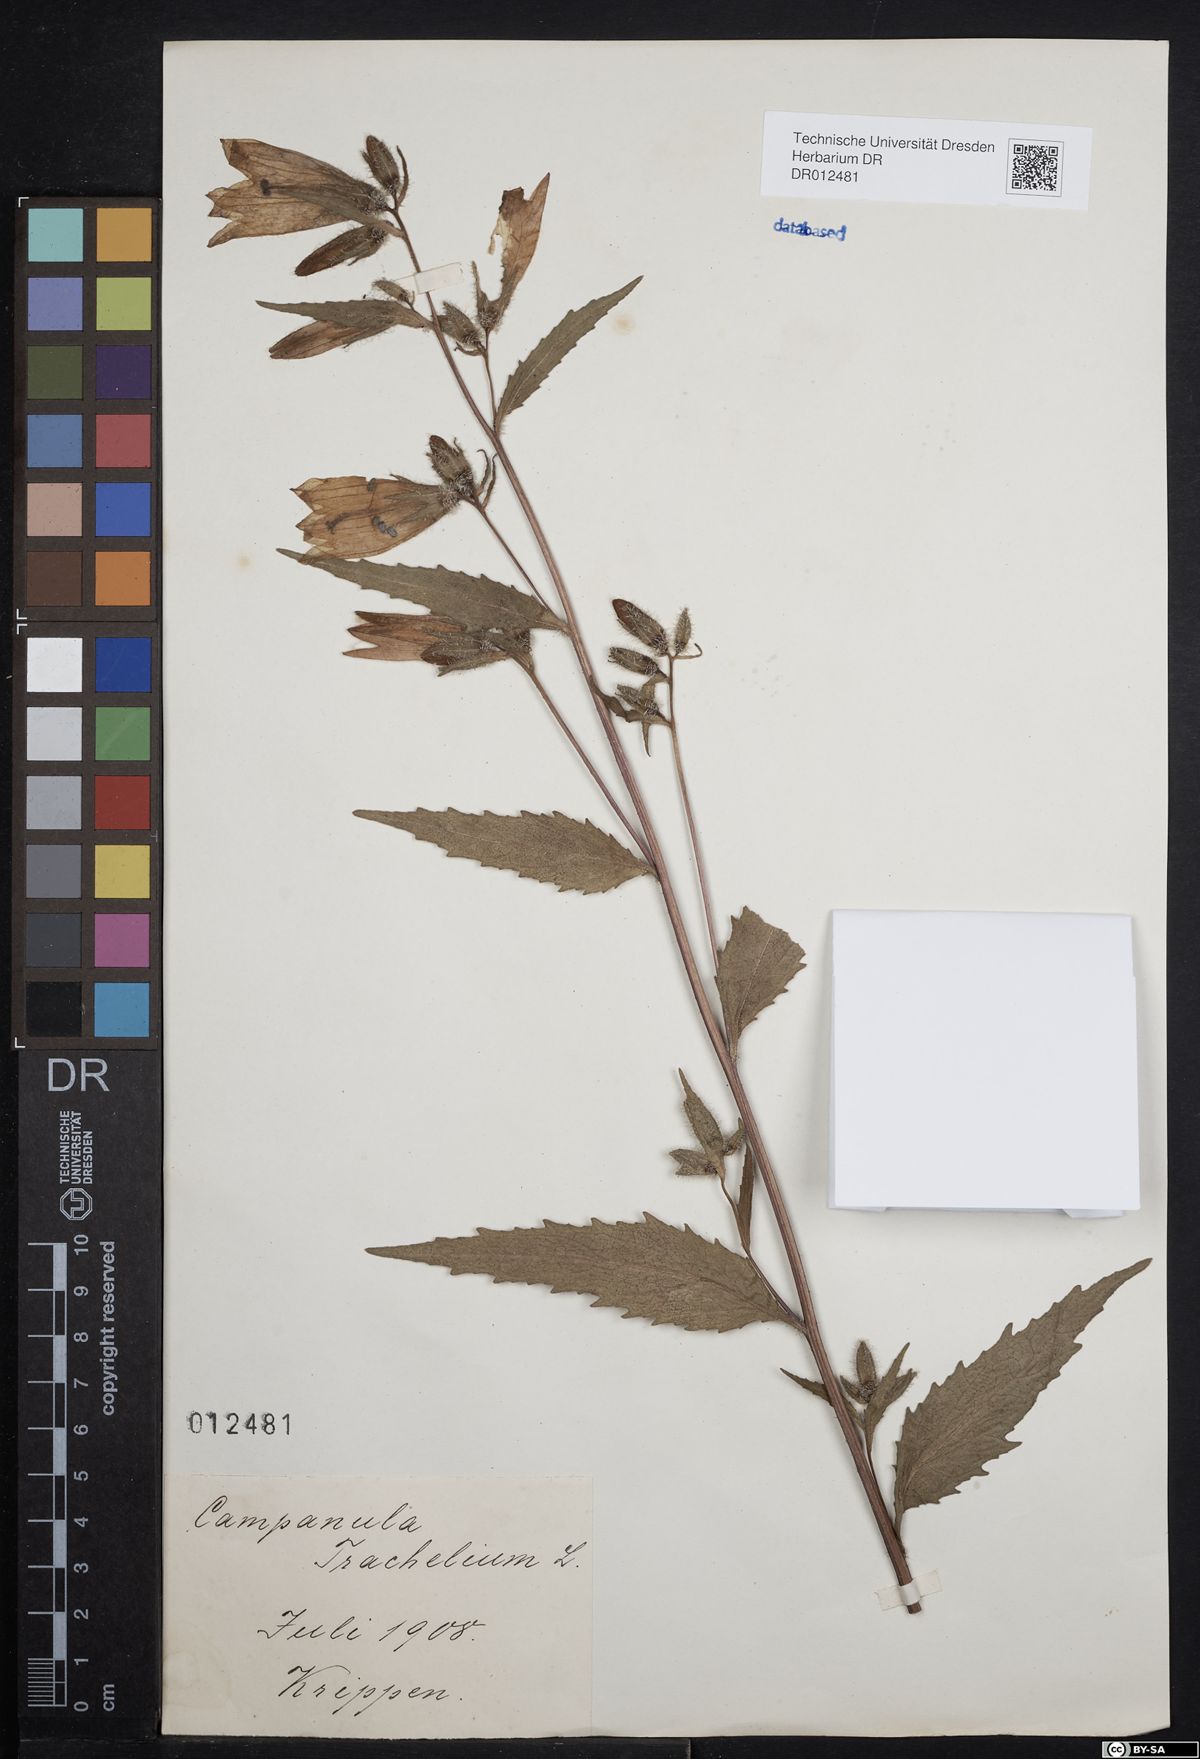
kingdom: Plantae
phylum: Tracheophyta
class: Magnoliopsida
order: Asterales
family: Campanulaceae
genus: Campanula
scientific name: Campanula trachelium
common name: Nettle-leaved bellflower
